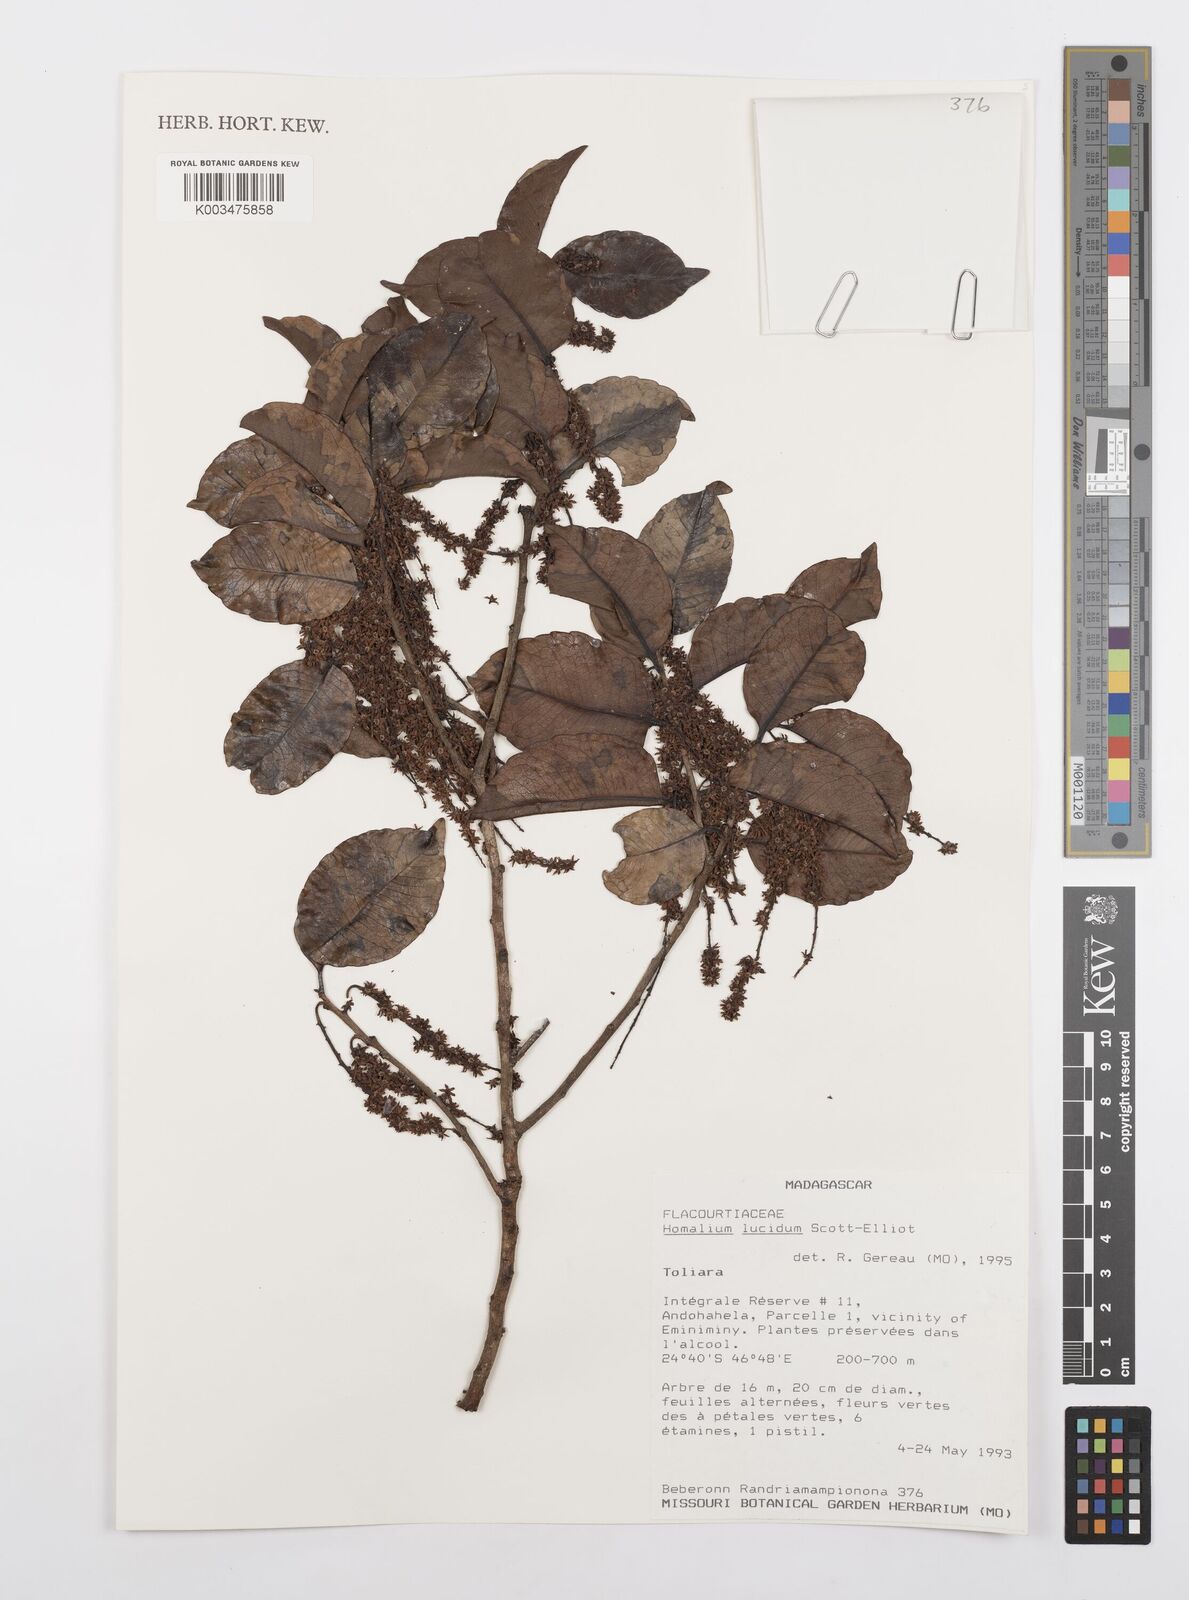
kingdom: Plantae
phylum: Tracheophyta
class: Magnoliopsida
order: Malpighiales
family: Salicaceae
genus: Homalium
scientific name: Homalium lucidum
